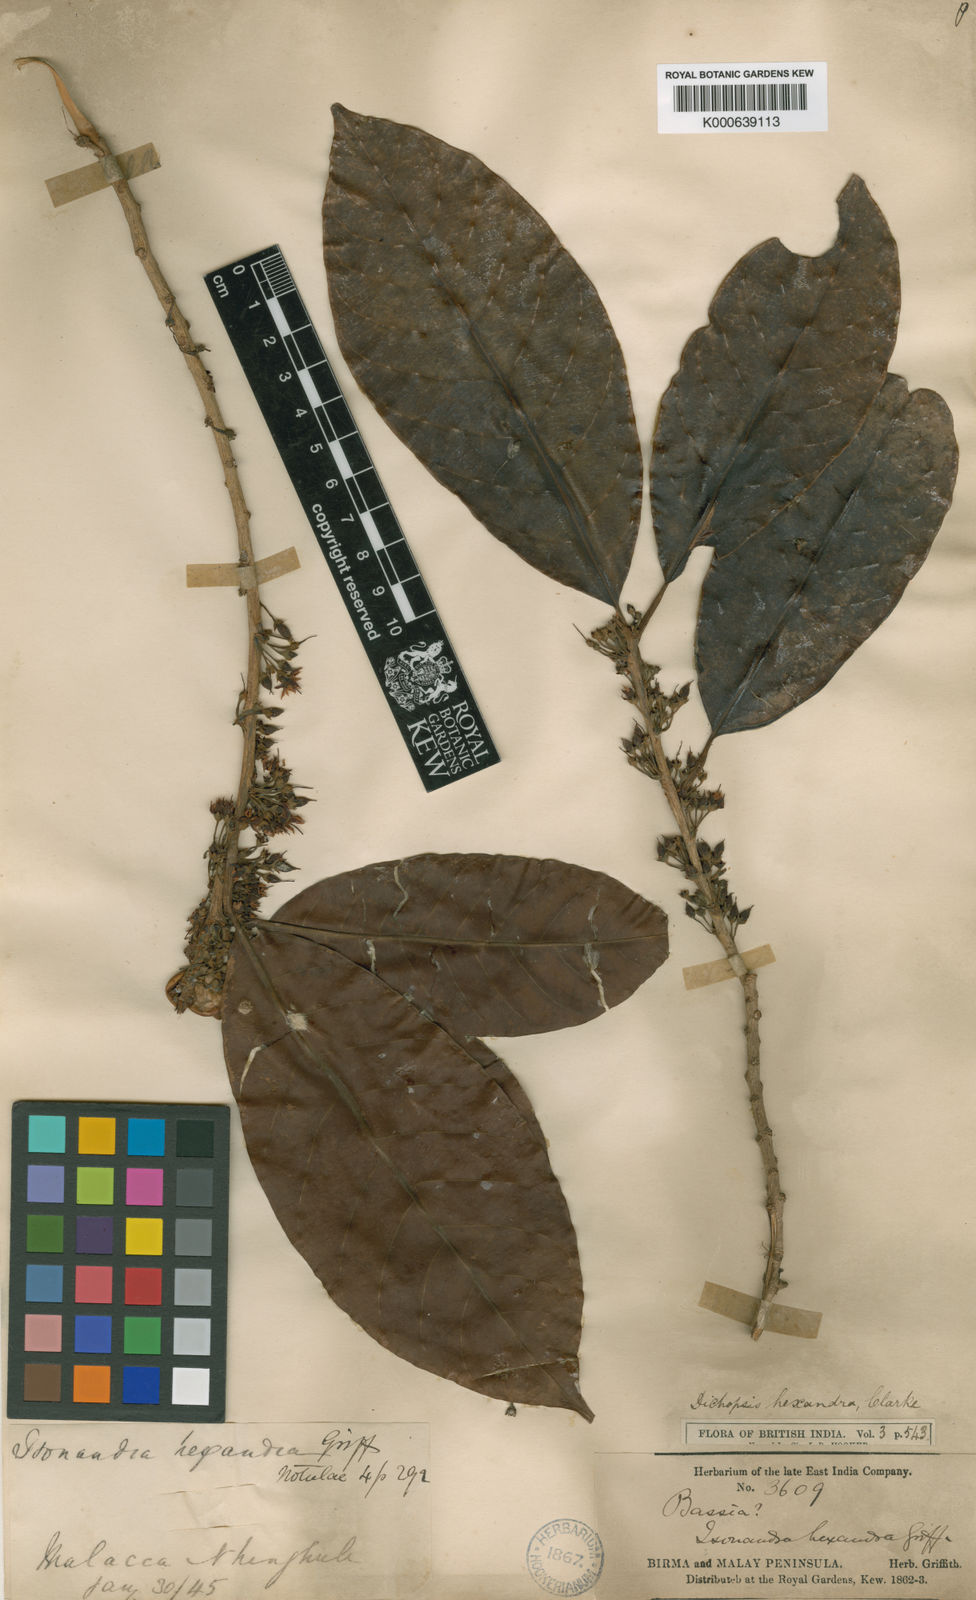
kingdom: Plantae
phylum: Tracheophyta
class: Magnoliopsida
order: Ericales
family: Sapotaceae
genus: Palaquium
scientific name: Palaquium hexandrum
